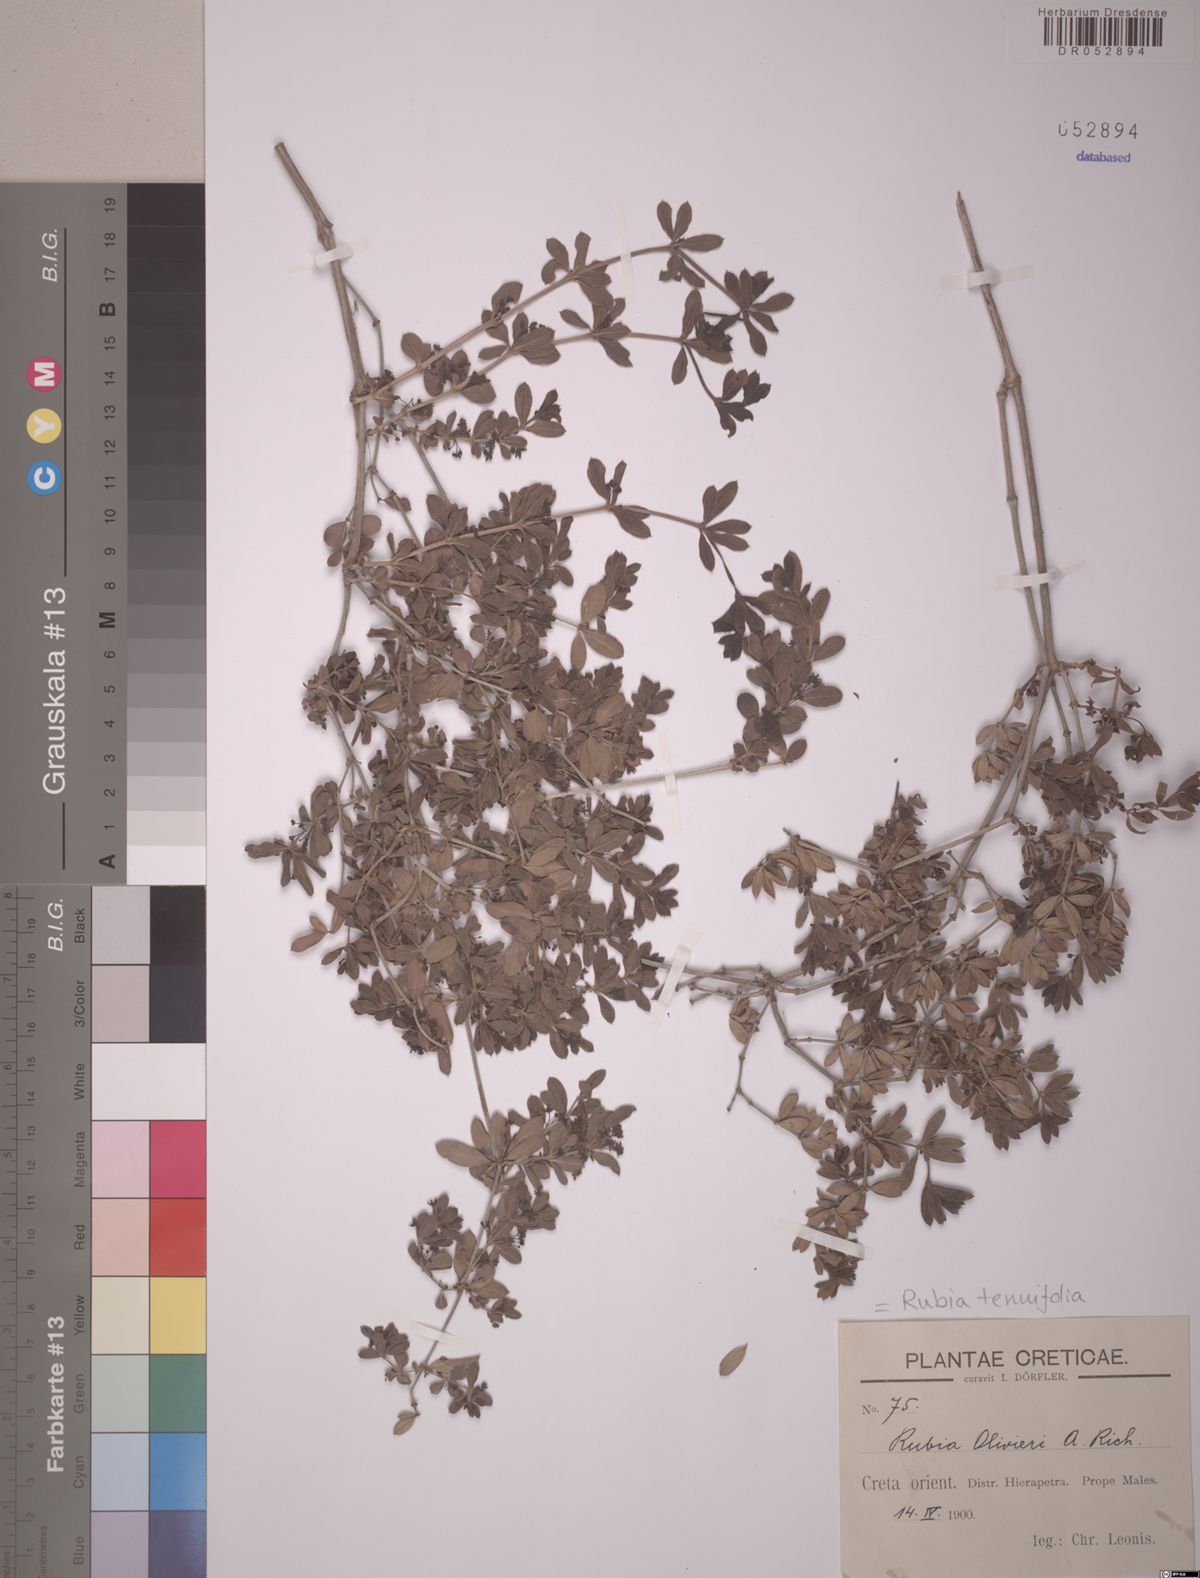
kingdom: Plantae
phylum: Tracheophyta
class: Magnoliopsida
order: Gentianales
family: Rubiaceae
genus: Rubia
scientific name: Rubia tenuifolia
